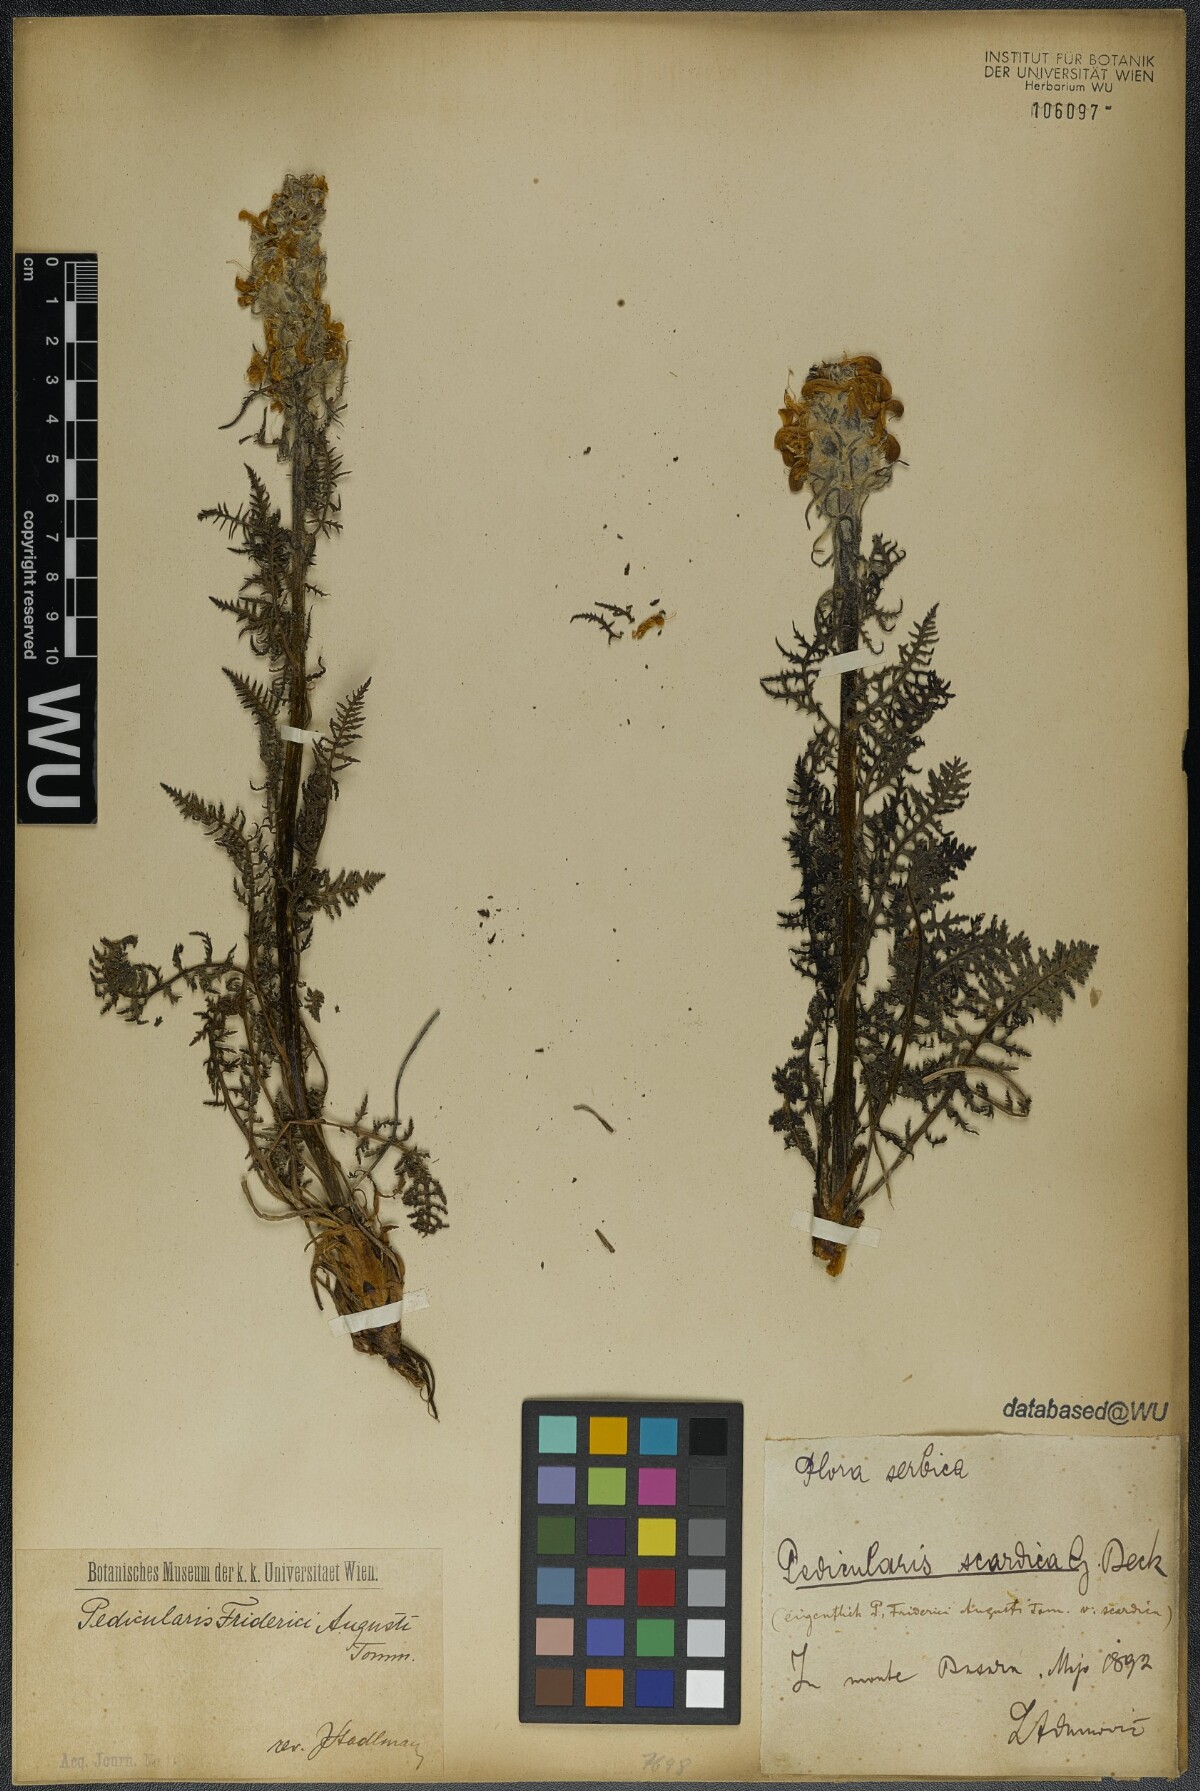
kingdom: Plantae
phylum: Tracheophyta
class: Magnoliopsida
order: Lamiales
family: Orobanchaceae
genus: Pedicularis
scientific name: Pedicularis friderici-augusti
